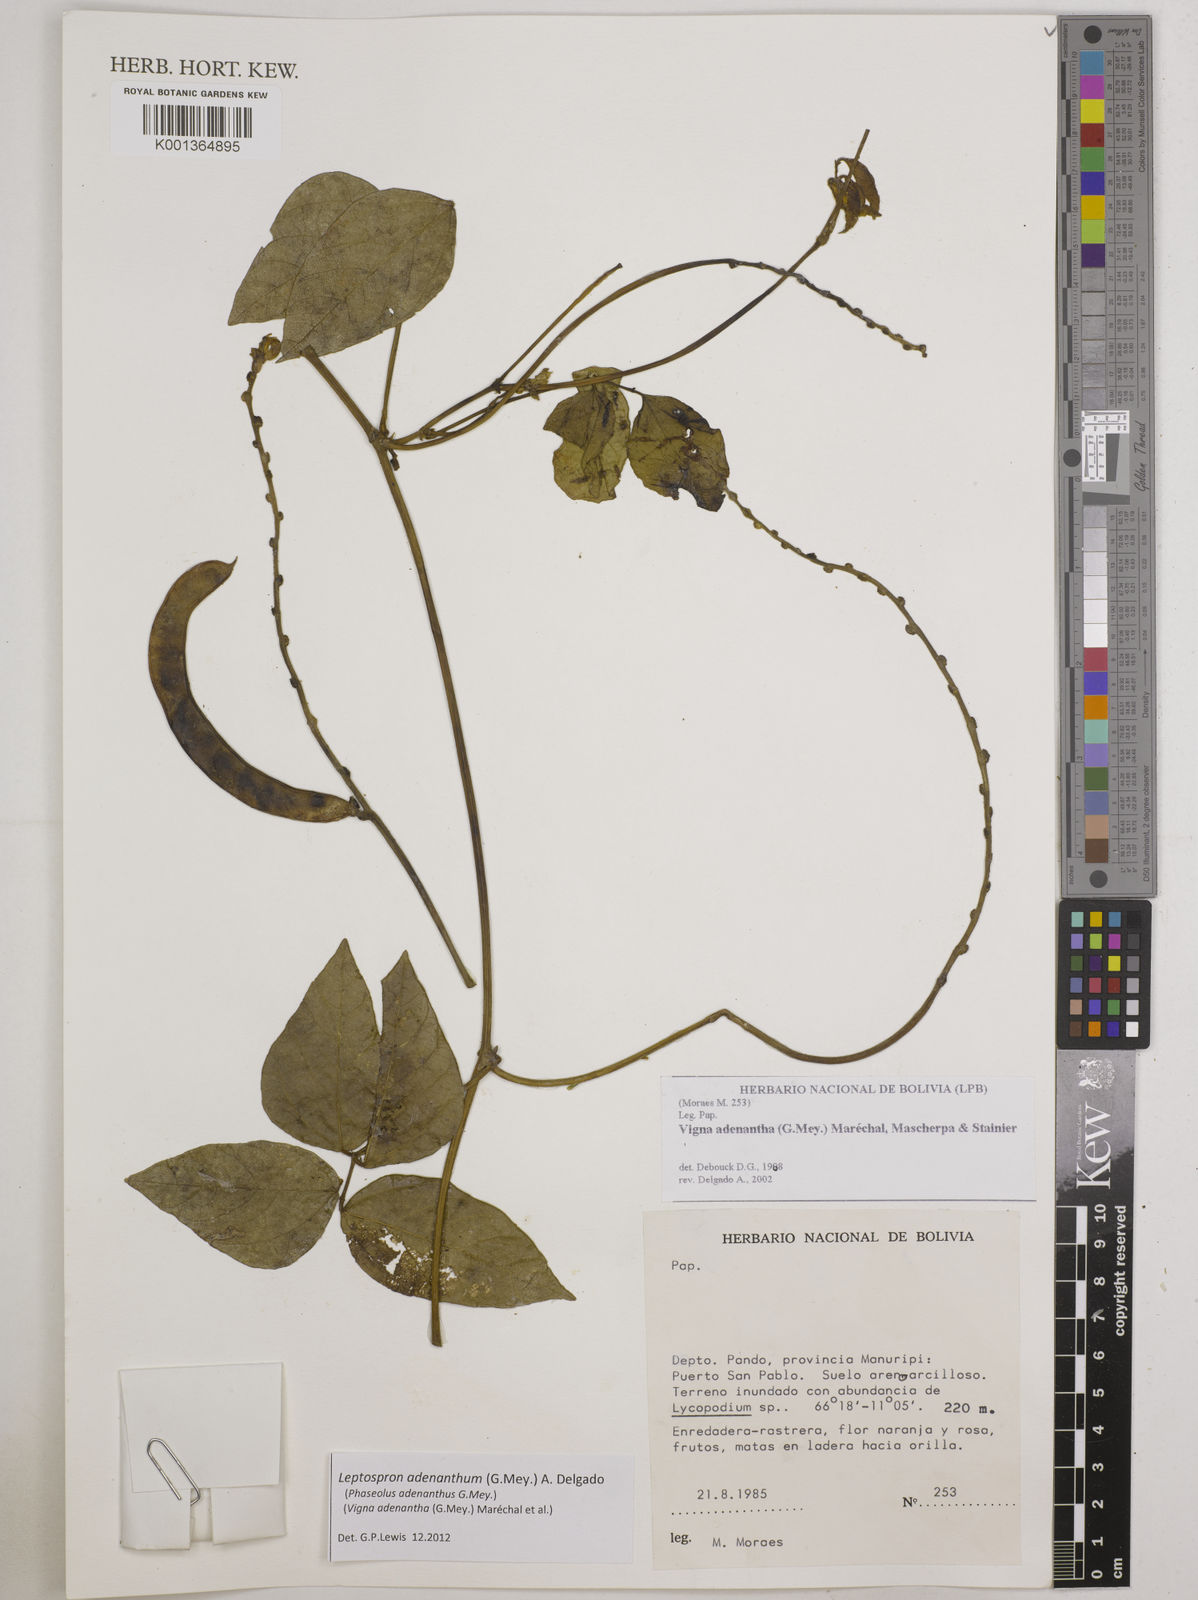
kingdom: Plantae
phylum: Tracheophyta
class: Magnoliopsida
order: Fabales
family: Fabaceae
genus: Leptospron
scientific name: Leptospron adenanthum
